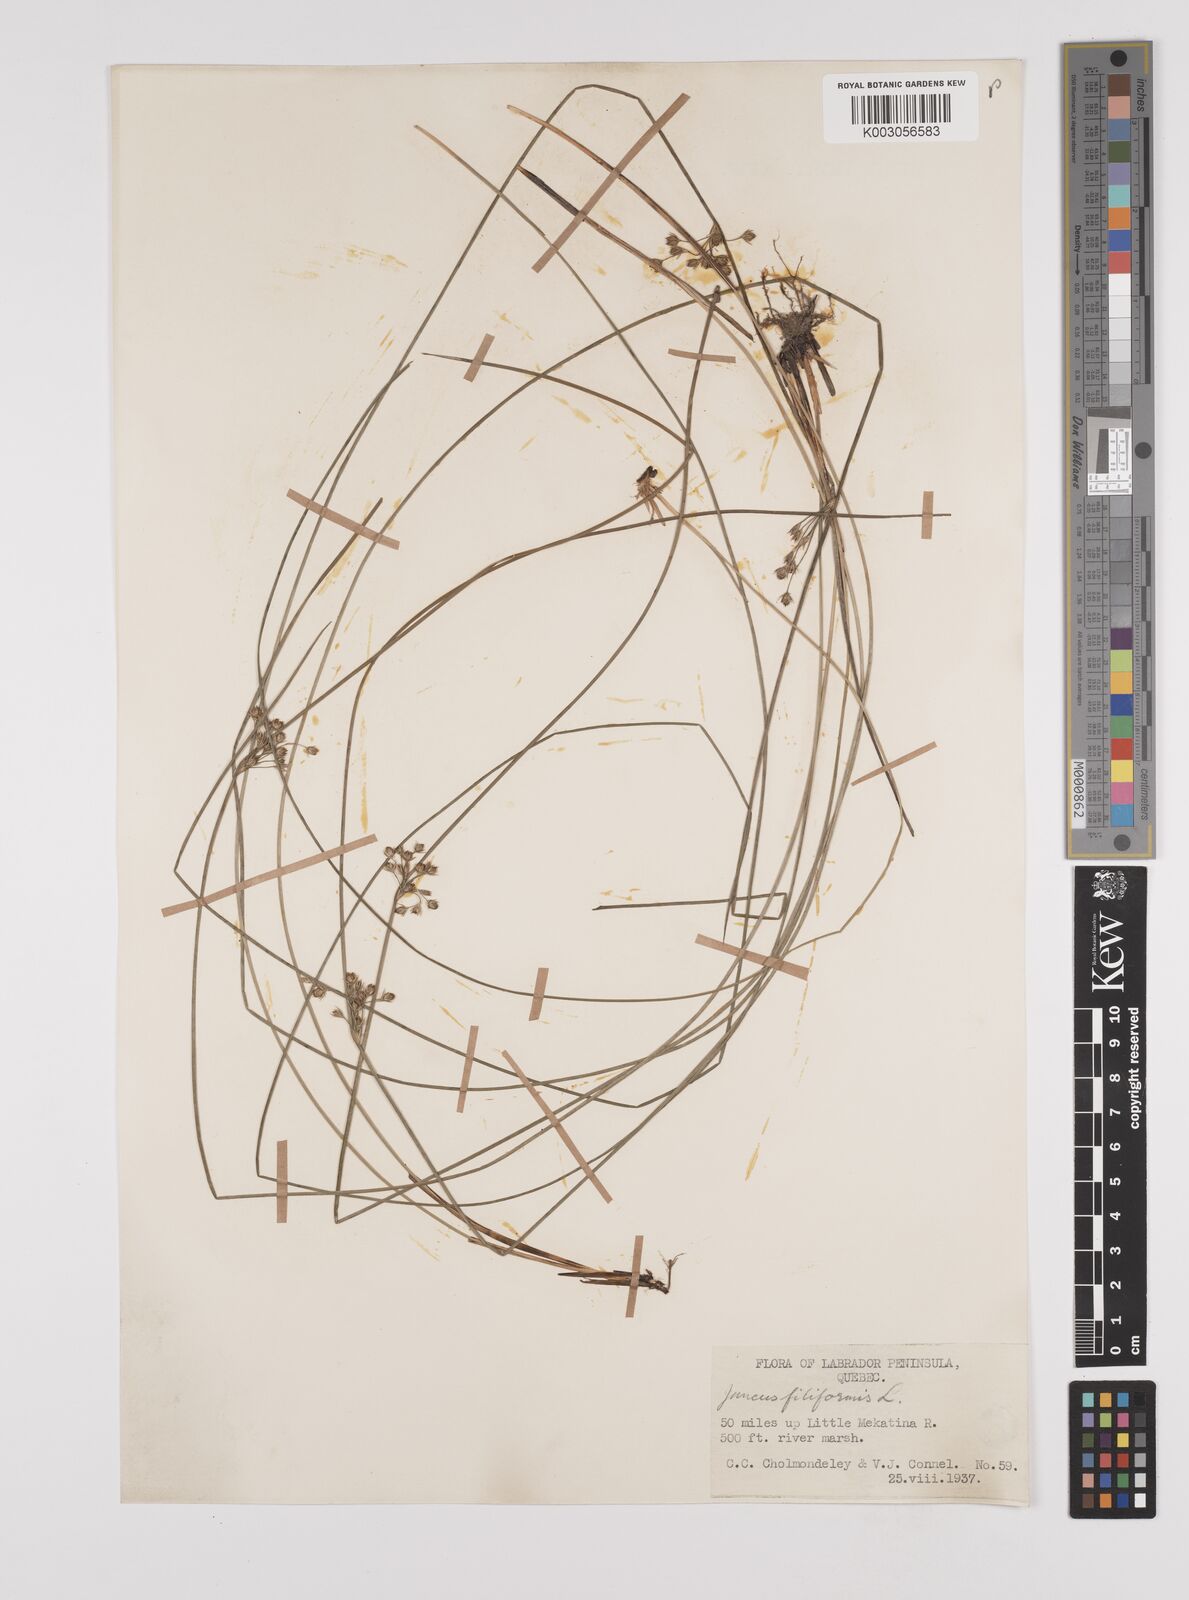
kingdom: Plantae
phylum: Tracheophyta
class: Liliopsida
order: Poales
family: Juncaceae
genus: Juncus
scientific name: Juncus filiformis
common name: Thread rush
